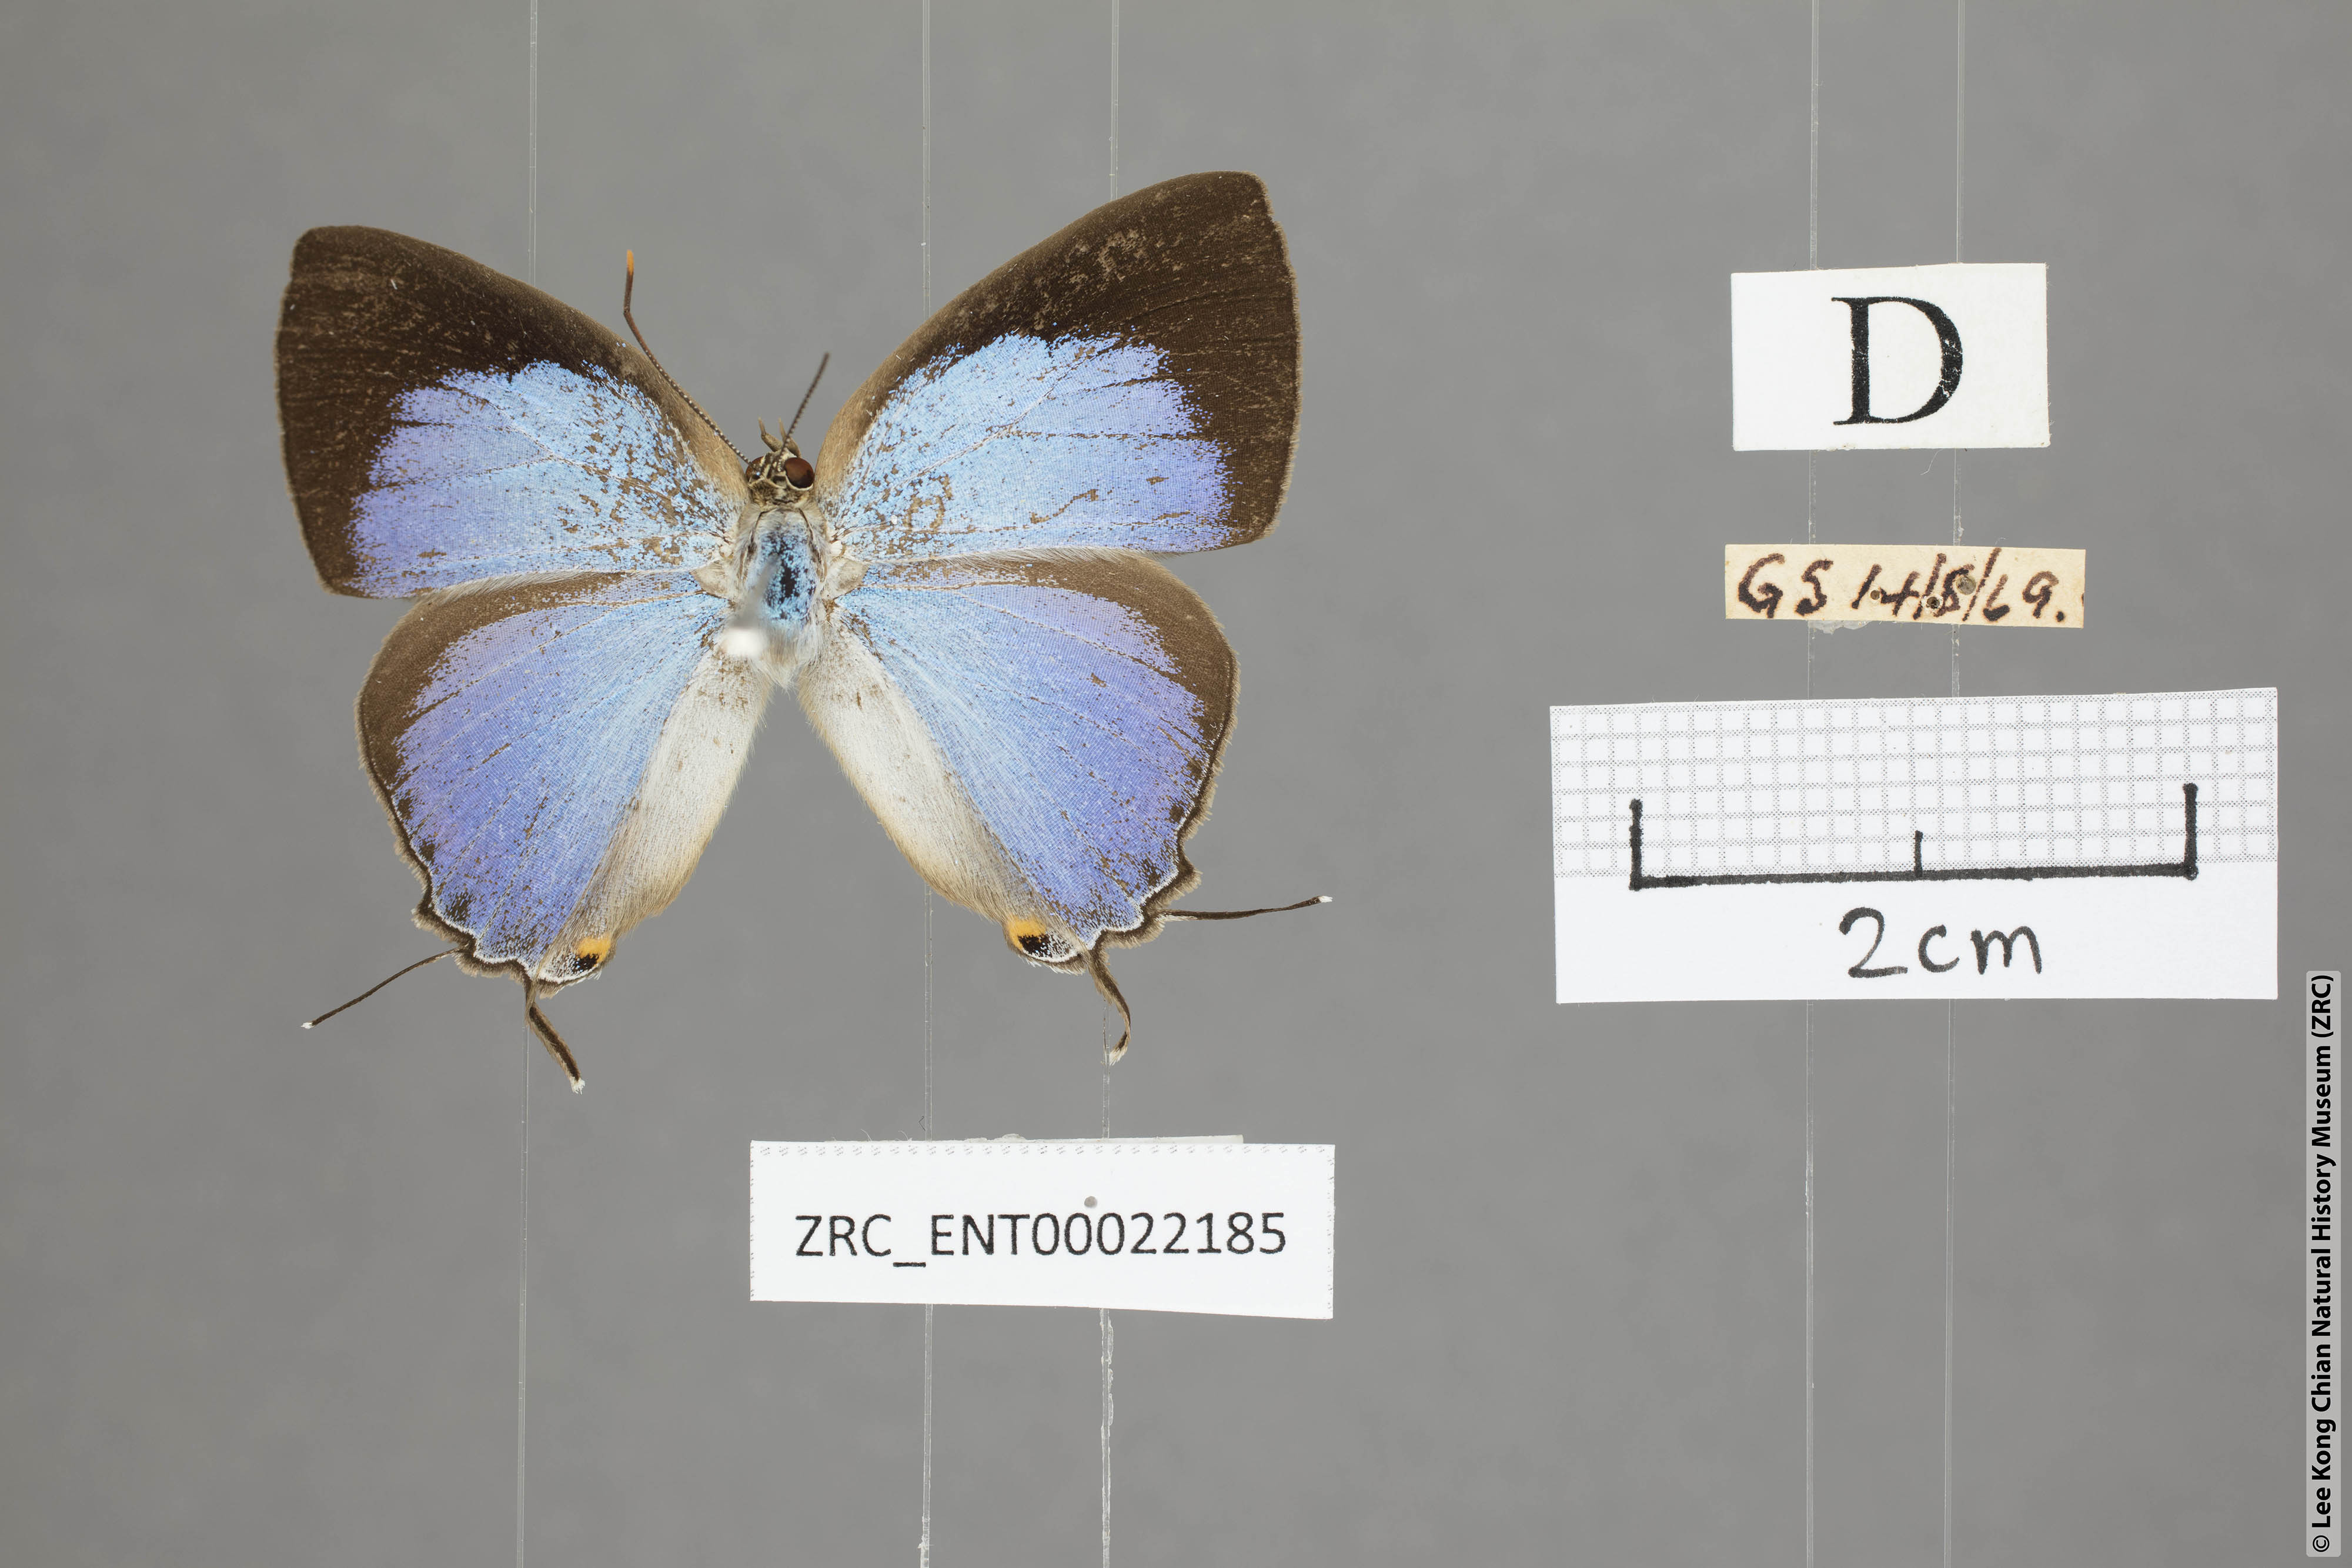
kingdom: Animalia
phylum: Arthropoda
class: Insecta
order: Lepidoptera
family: Lycaenidae
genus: Tajuria
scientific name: Tajuria deudaix
